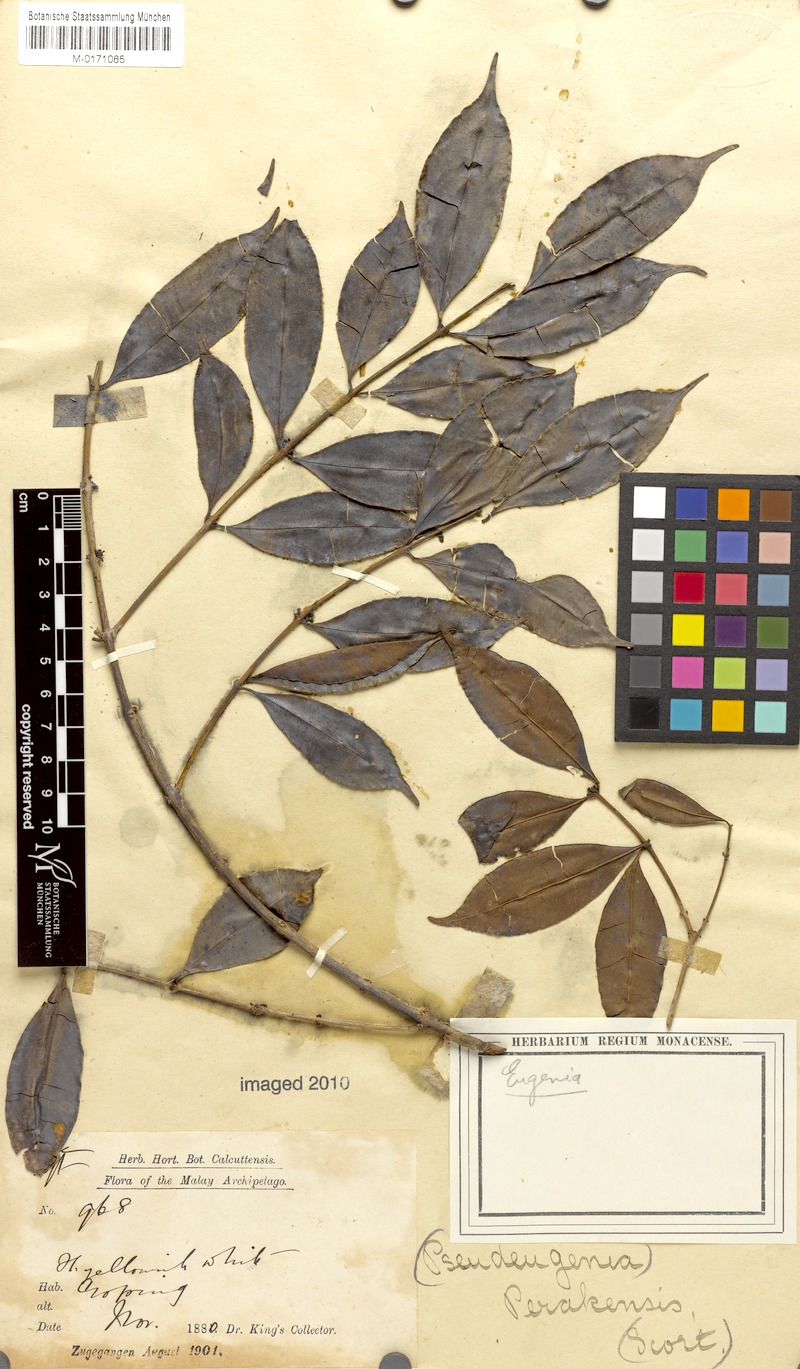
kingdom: Plantae
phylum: Tracheophyta
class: Magnoliopsida
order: Myrtales
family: Myrtaceae
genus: Syzygium
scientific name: Syzygium perakense
